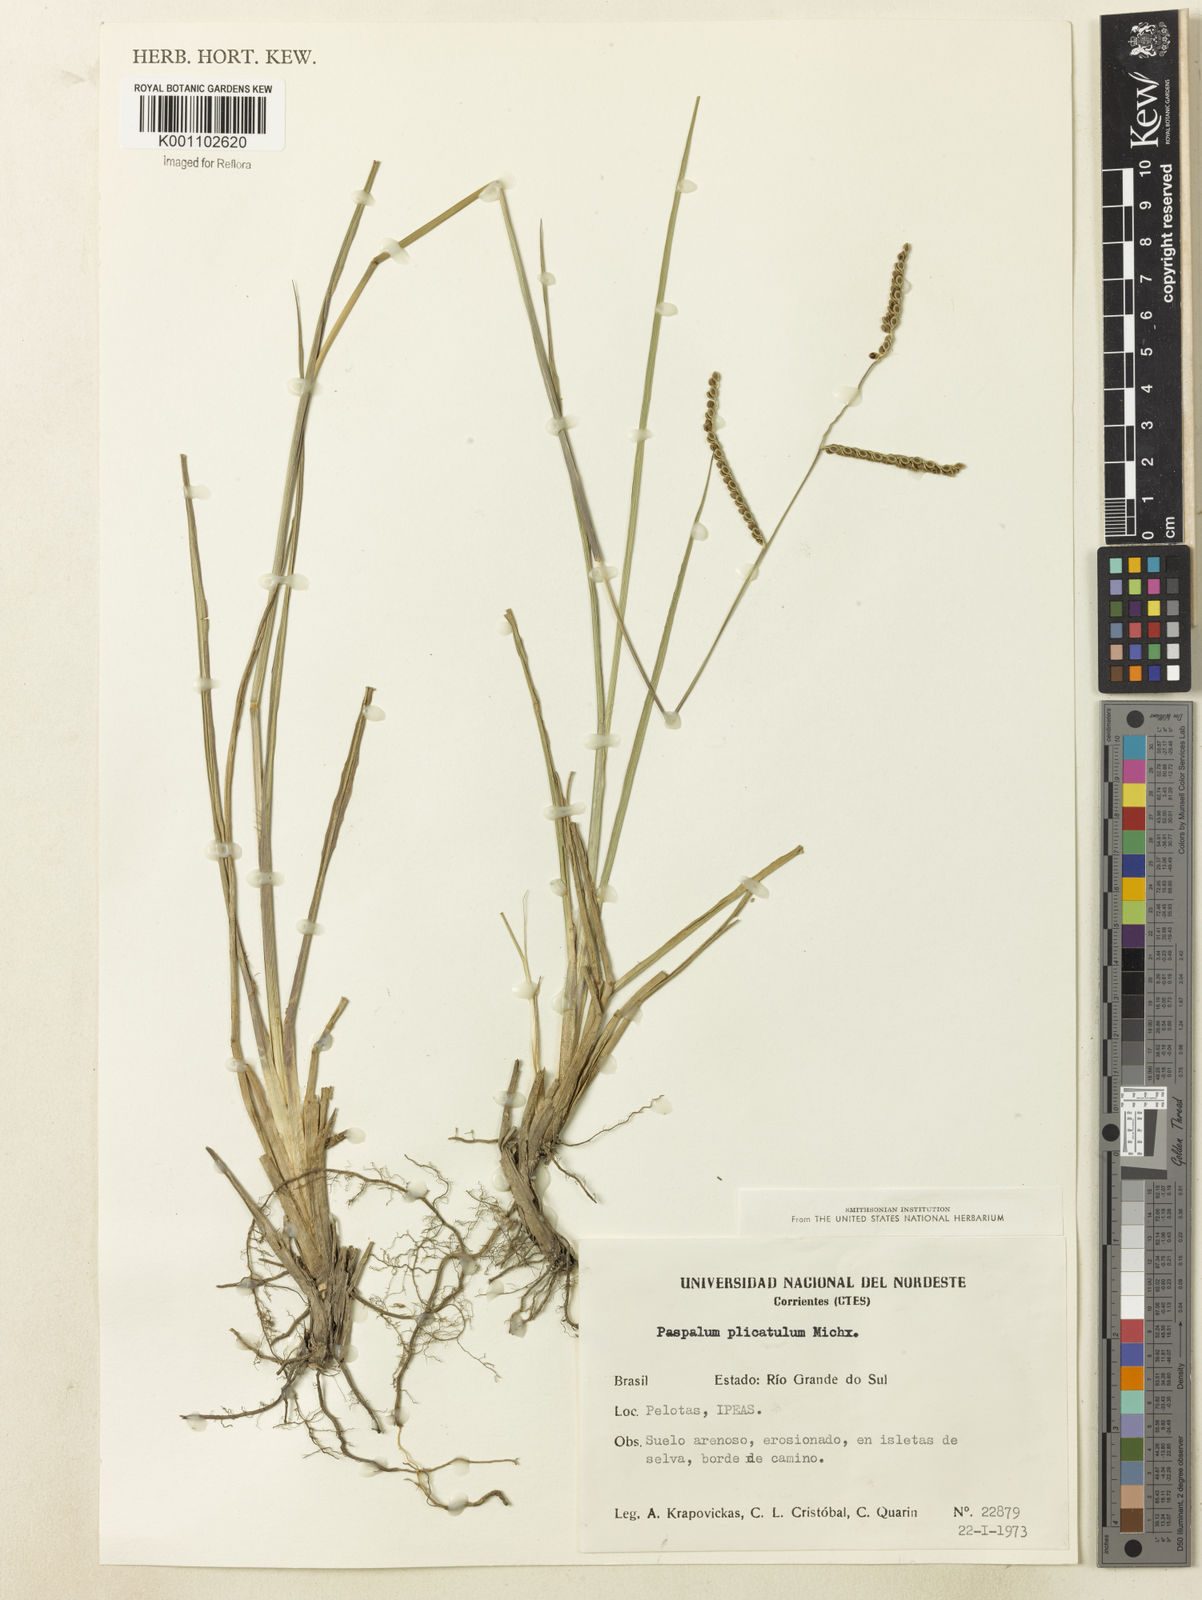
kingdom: Plantae
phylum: Tracheophyta
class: Liliopsida
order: Poales
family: Poaceae
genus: Paspalum
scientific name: Paspalum
